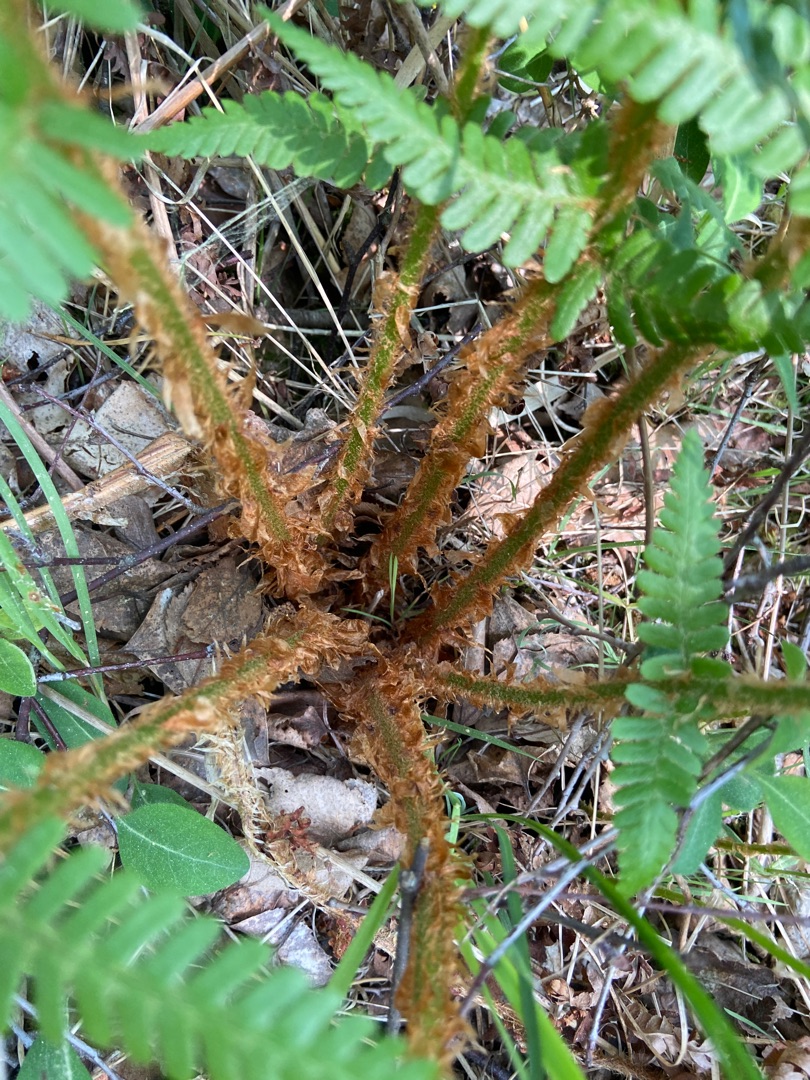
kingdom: Plantae
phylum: Tracheophyta
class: Polypodiopsida
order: Polypodiales
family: Dryopteridaceae
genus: Dryopteris
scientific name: Dryopteris filix-mas
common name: Almindelig mangeløv
